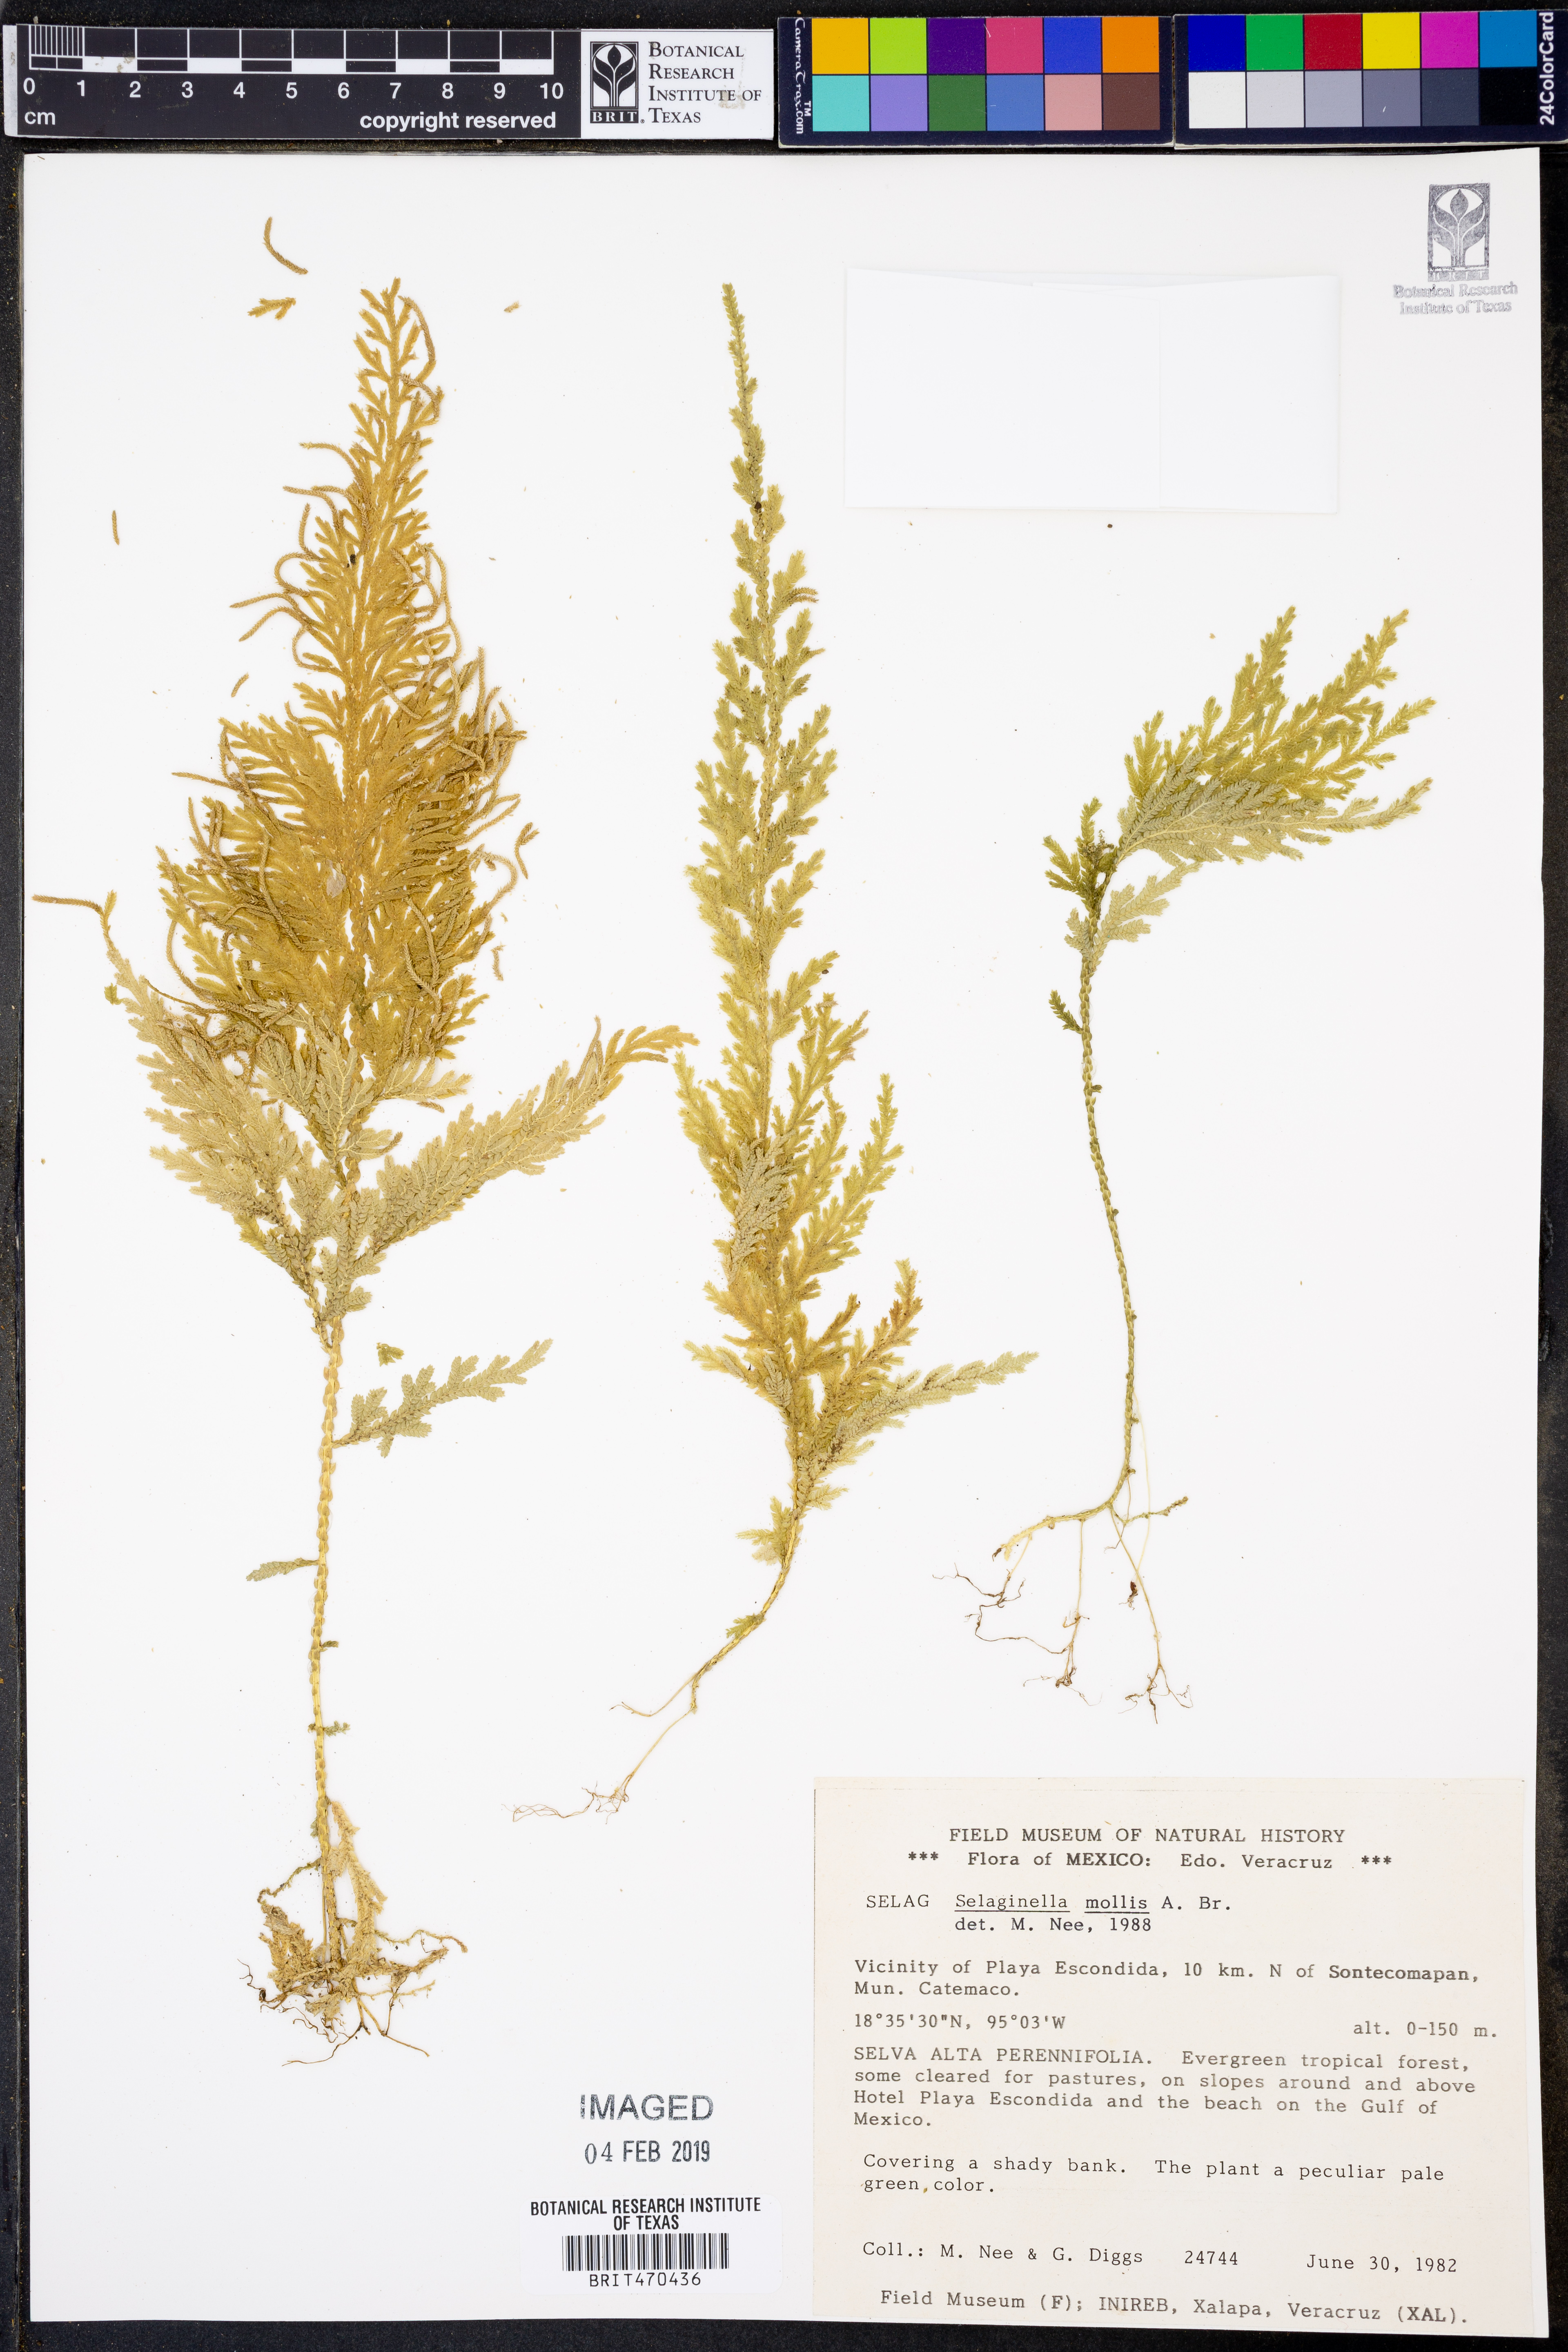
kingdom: Plantae
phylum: Tracheophyta
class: Lycopodiopsida
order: Selaginellales
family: Selaginellaceae
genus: Selaginella
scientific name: Selaginella mollis
